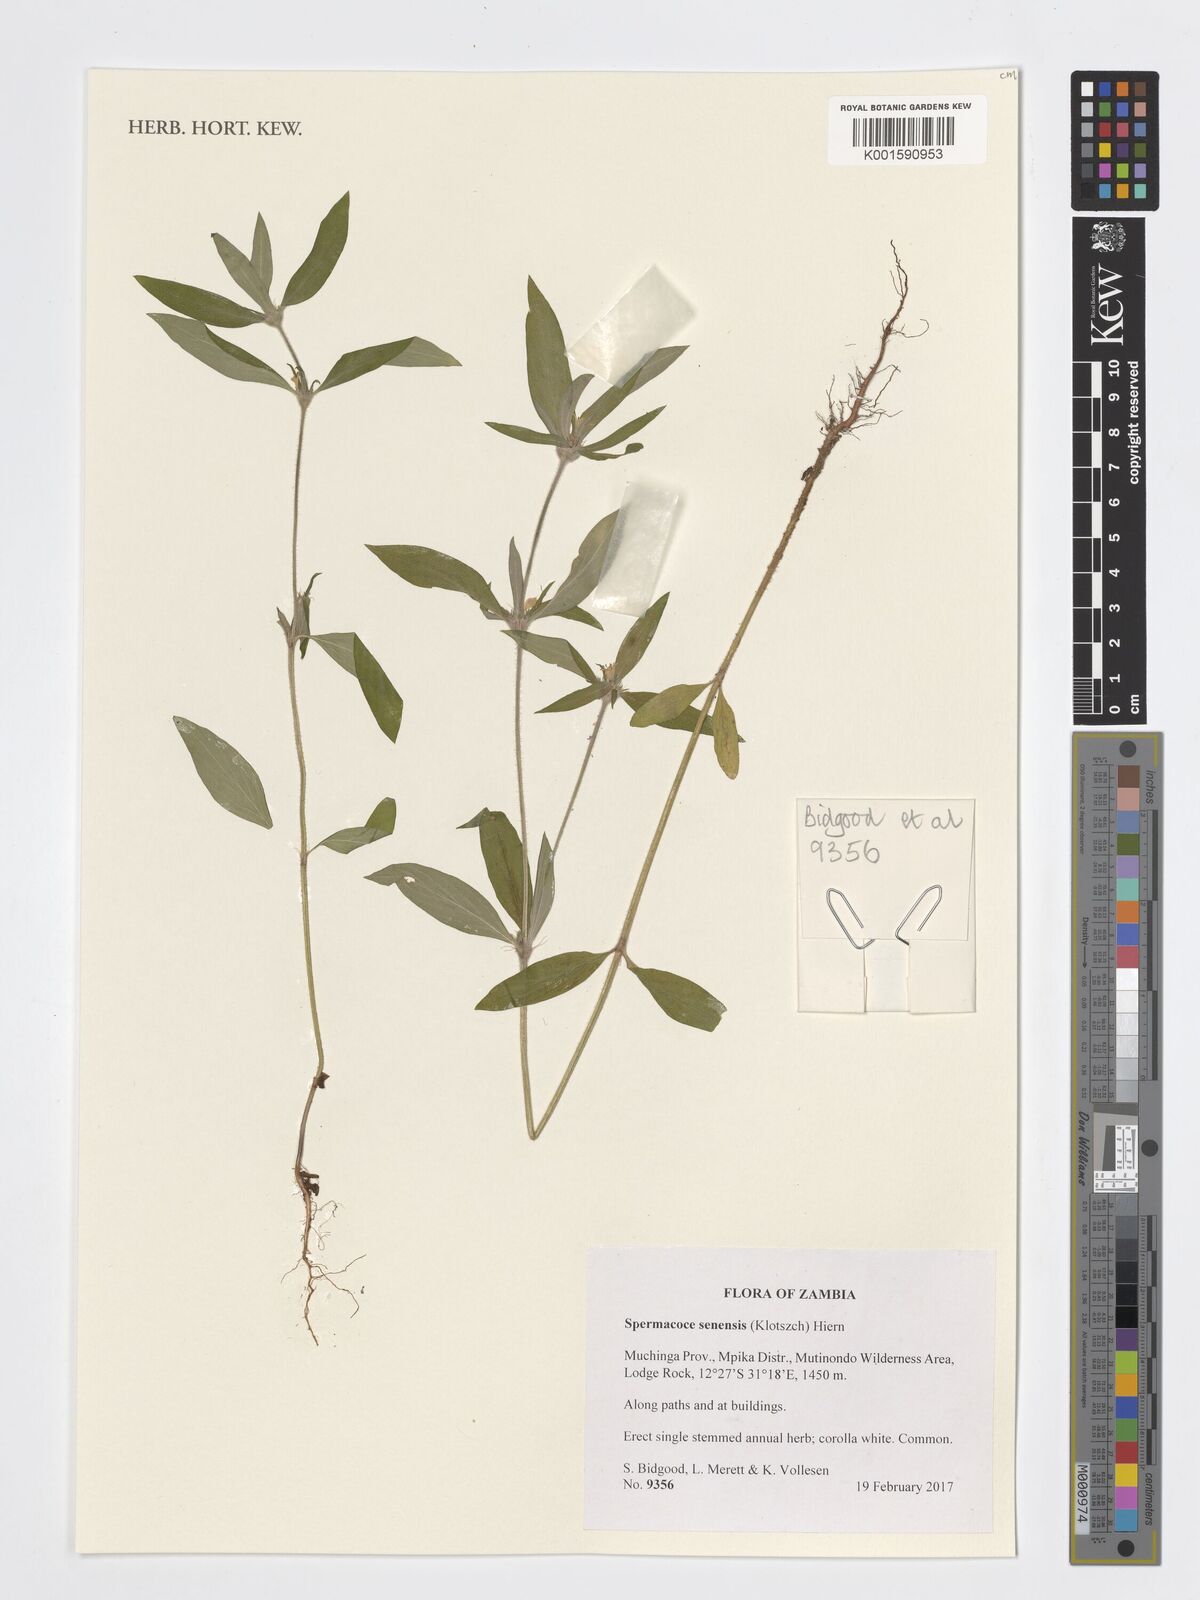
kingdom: Plantae
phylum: Tracheophyta
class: Magnoliopsida
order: Gentianales
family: Rubiaceae
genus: Spermacoce
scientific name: Spermacoce senensis
